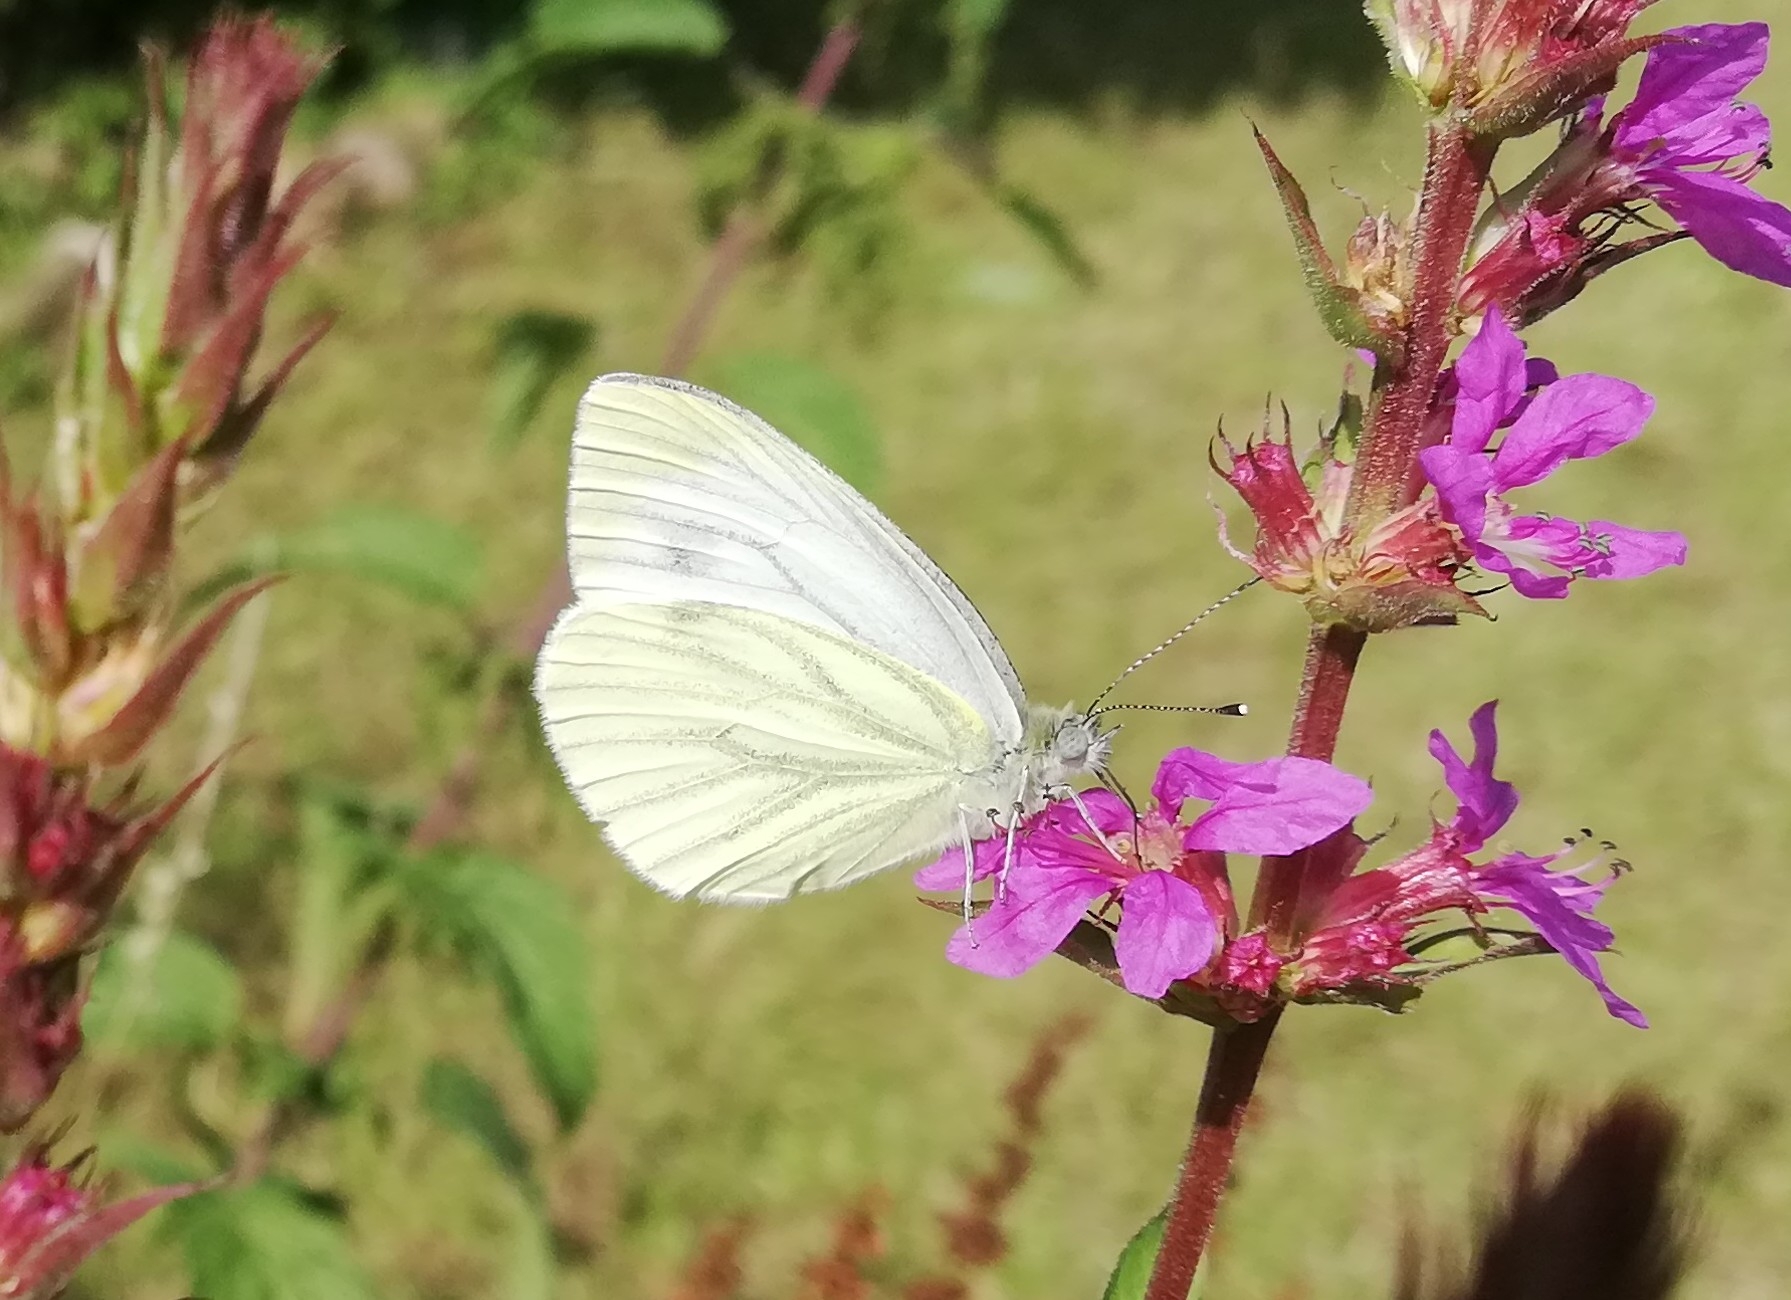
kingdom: Animalia
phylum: Arthropoda
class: Insecta
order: Lepidoptera
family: Pieridae
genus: Pieris
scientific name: Pieris napi
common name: Grønåret kålsommerfugl
